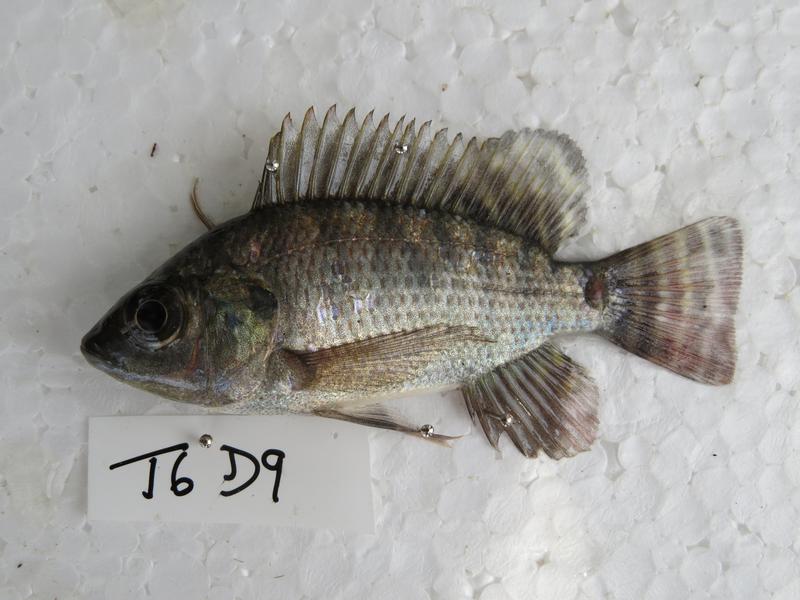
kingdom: Animalia
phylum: Chordata
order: Perciformes
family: Cichlidae
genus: Oreochromis
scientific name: Oreochromis niloticus
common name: Nile tilapia
